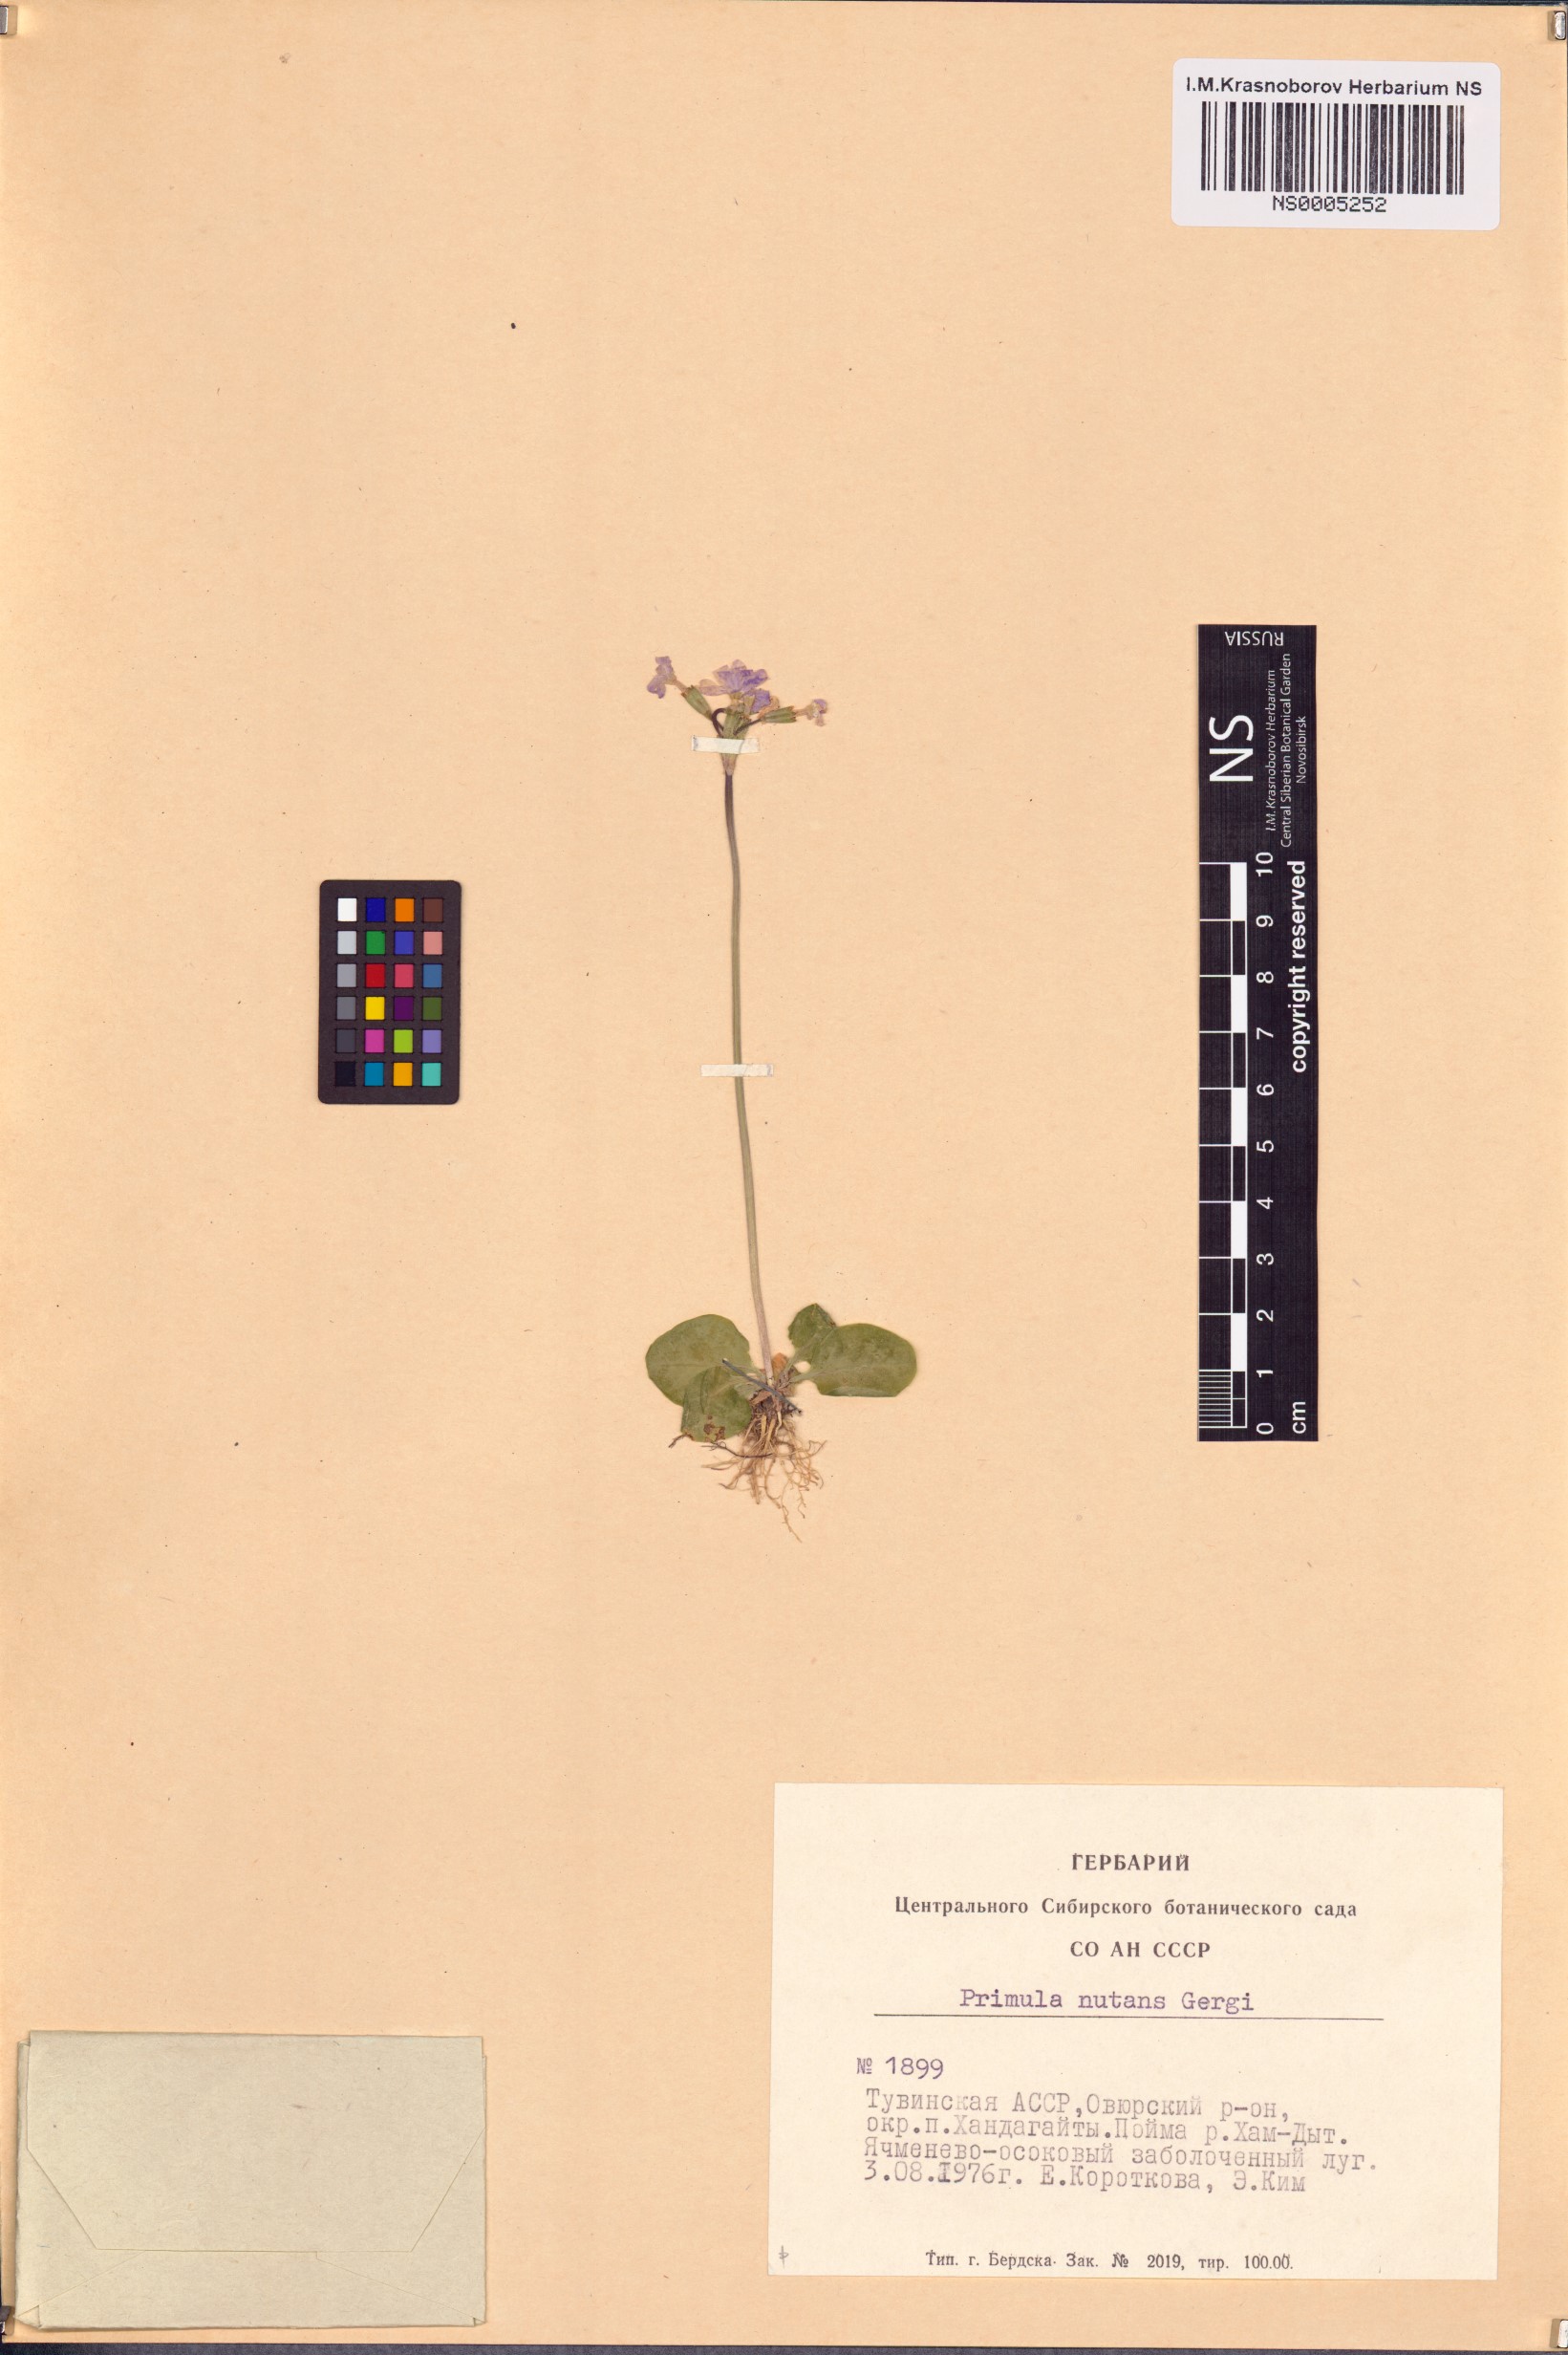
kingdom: Plantae
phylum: Tracheophyta
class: Magnoliopsida
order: Ericales
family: Primulaceae
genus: Primula
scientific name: Primula nutans
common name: Siberian primrose
